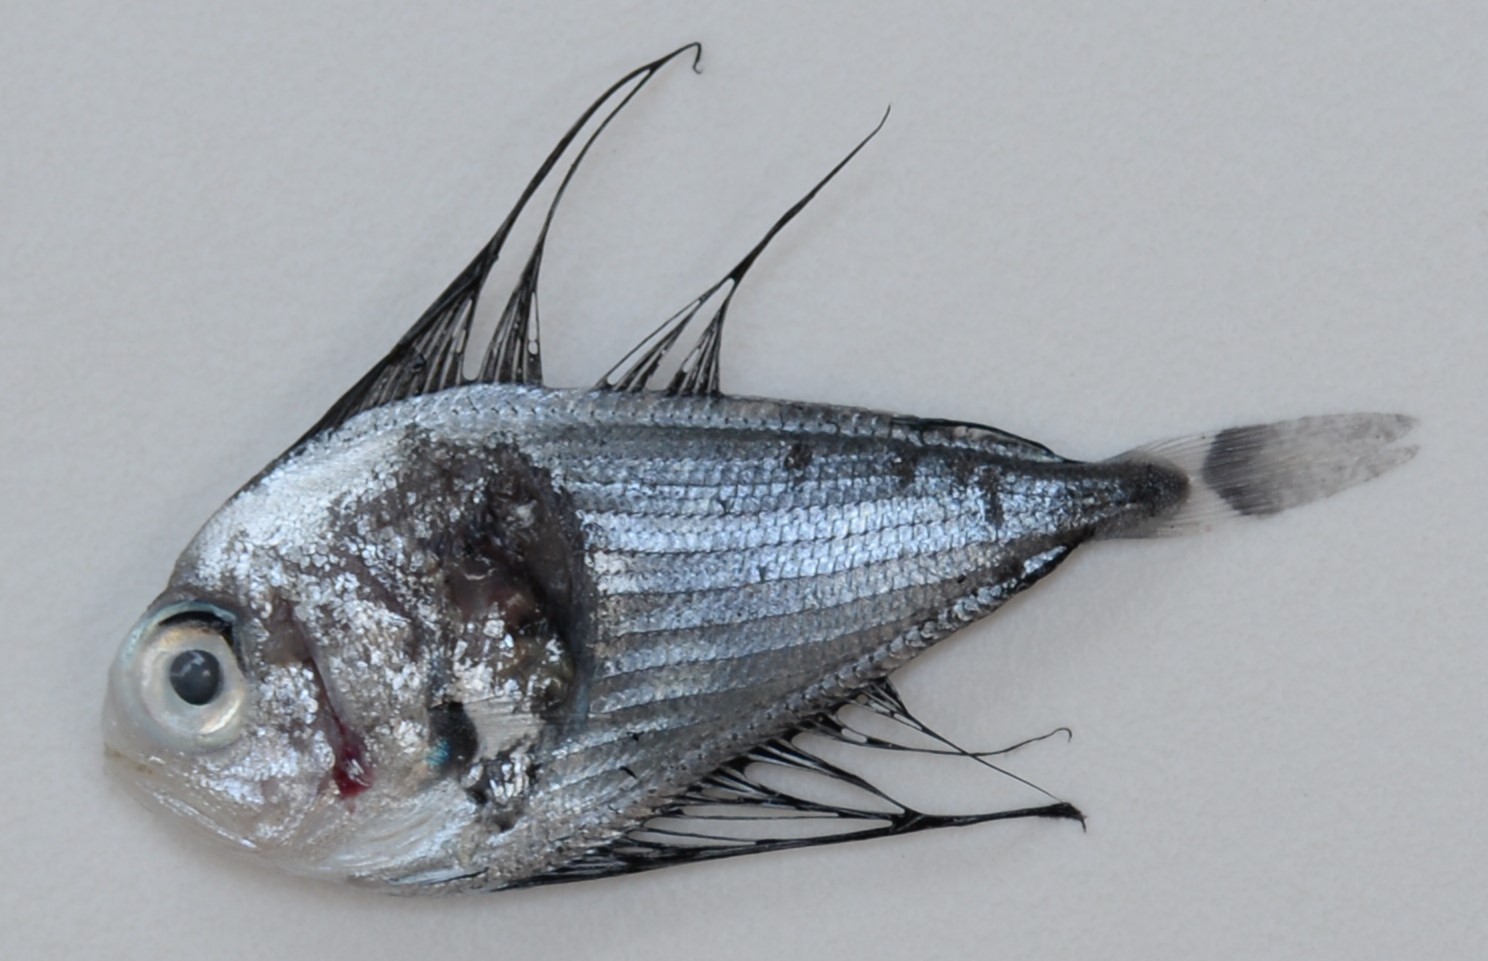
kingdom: Animalia
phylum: Chordata
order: Perciformes
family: Bramidae
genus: Pterycombus
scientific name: Pterycombus petersii
